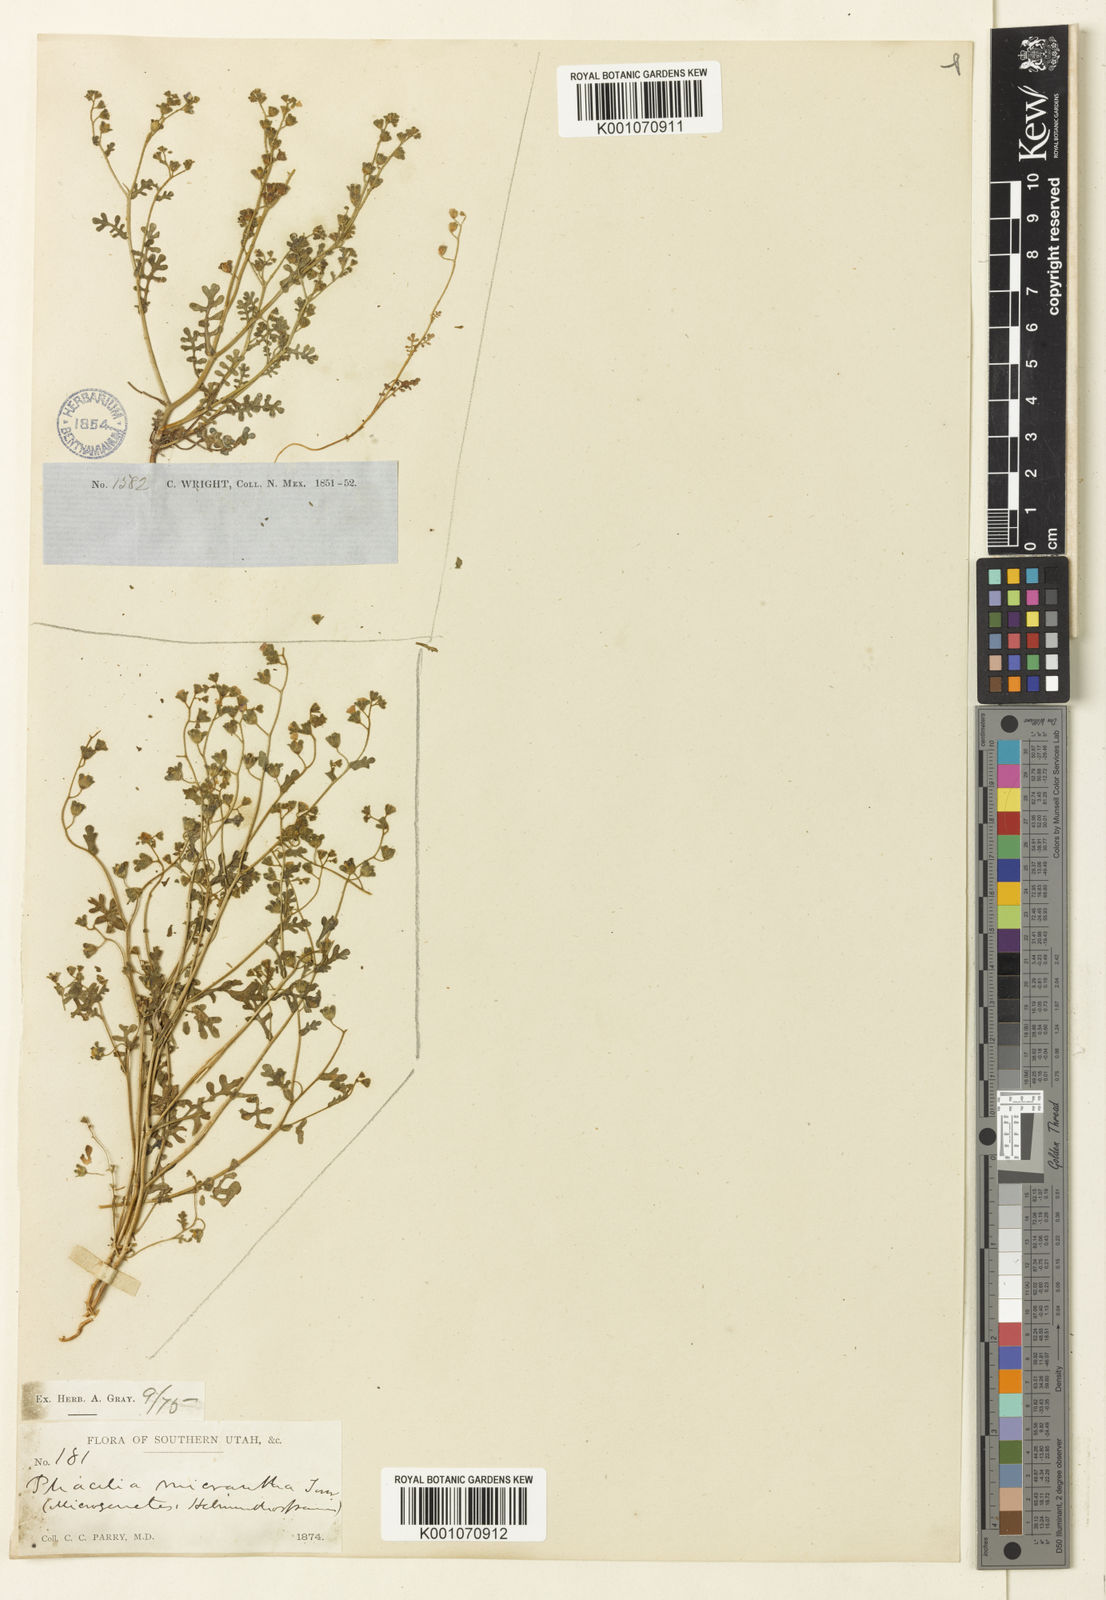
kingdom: Plantae
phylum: Tracheophyta
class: Magnoliopsida
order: Boraginales
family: Hydrophyllaceae
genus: Eucrypta
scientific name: Eucrypta micrantha
